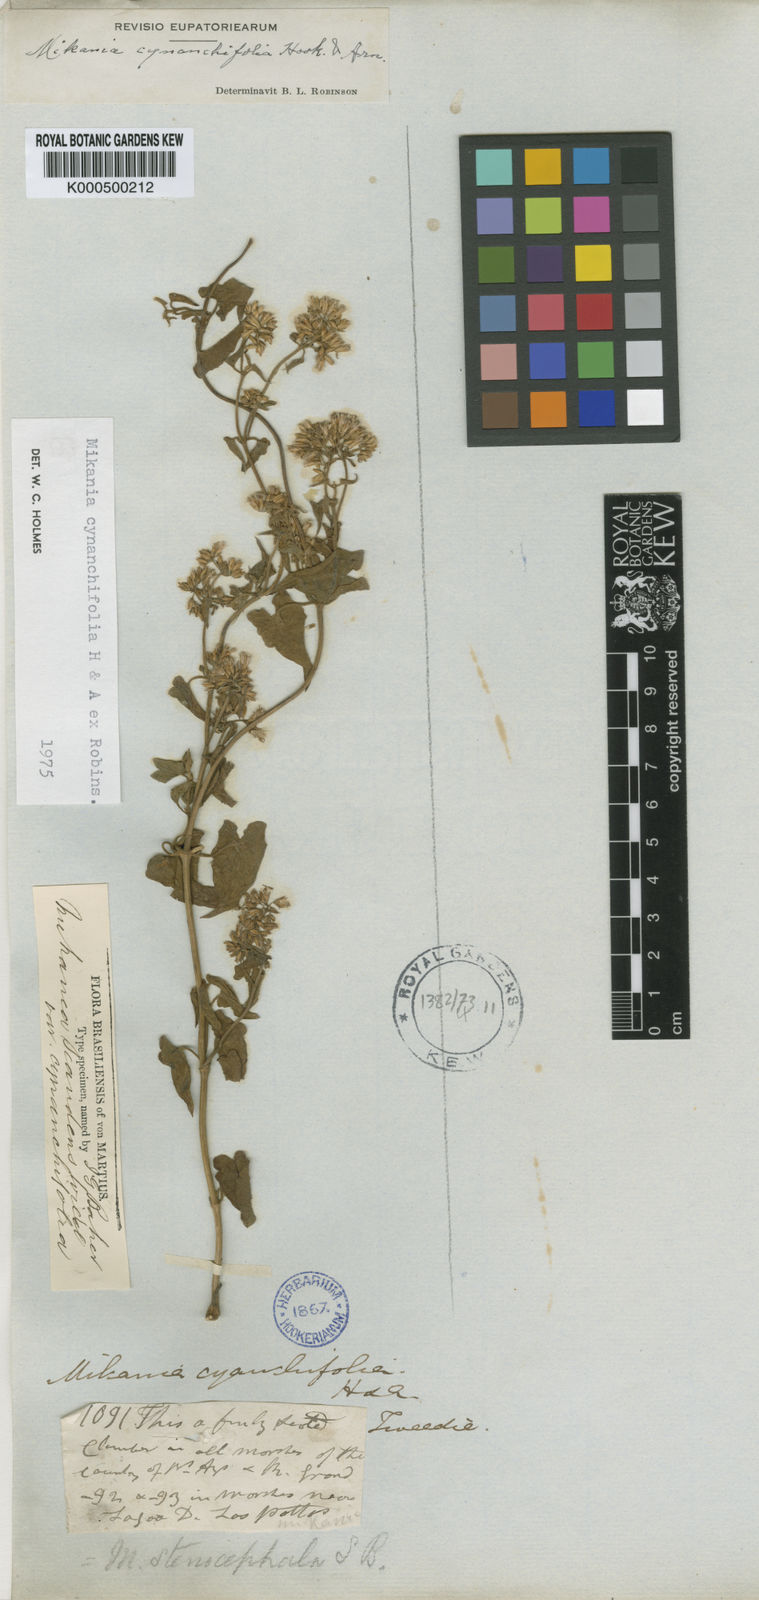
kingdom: Plantae
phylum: Tracheophyta
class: Magnoliopsida
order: Asterales
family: Asteraceae
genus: Mikania
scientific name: Mikania
